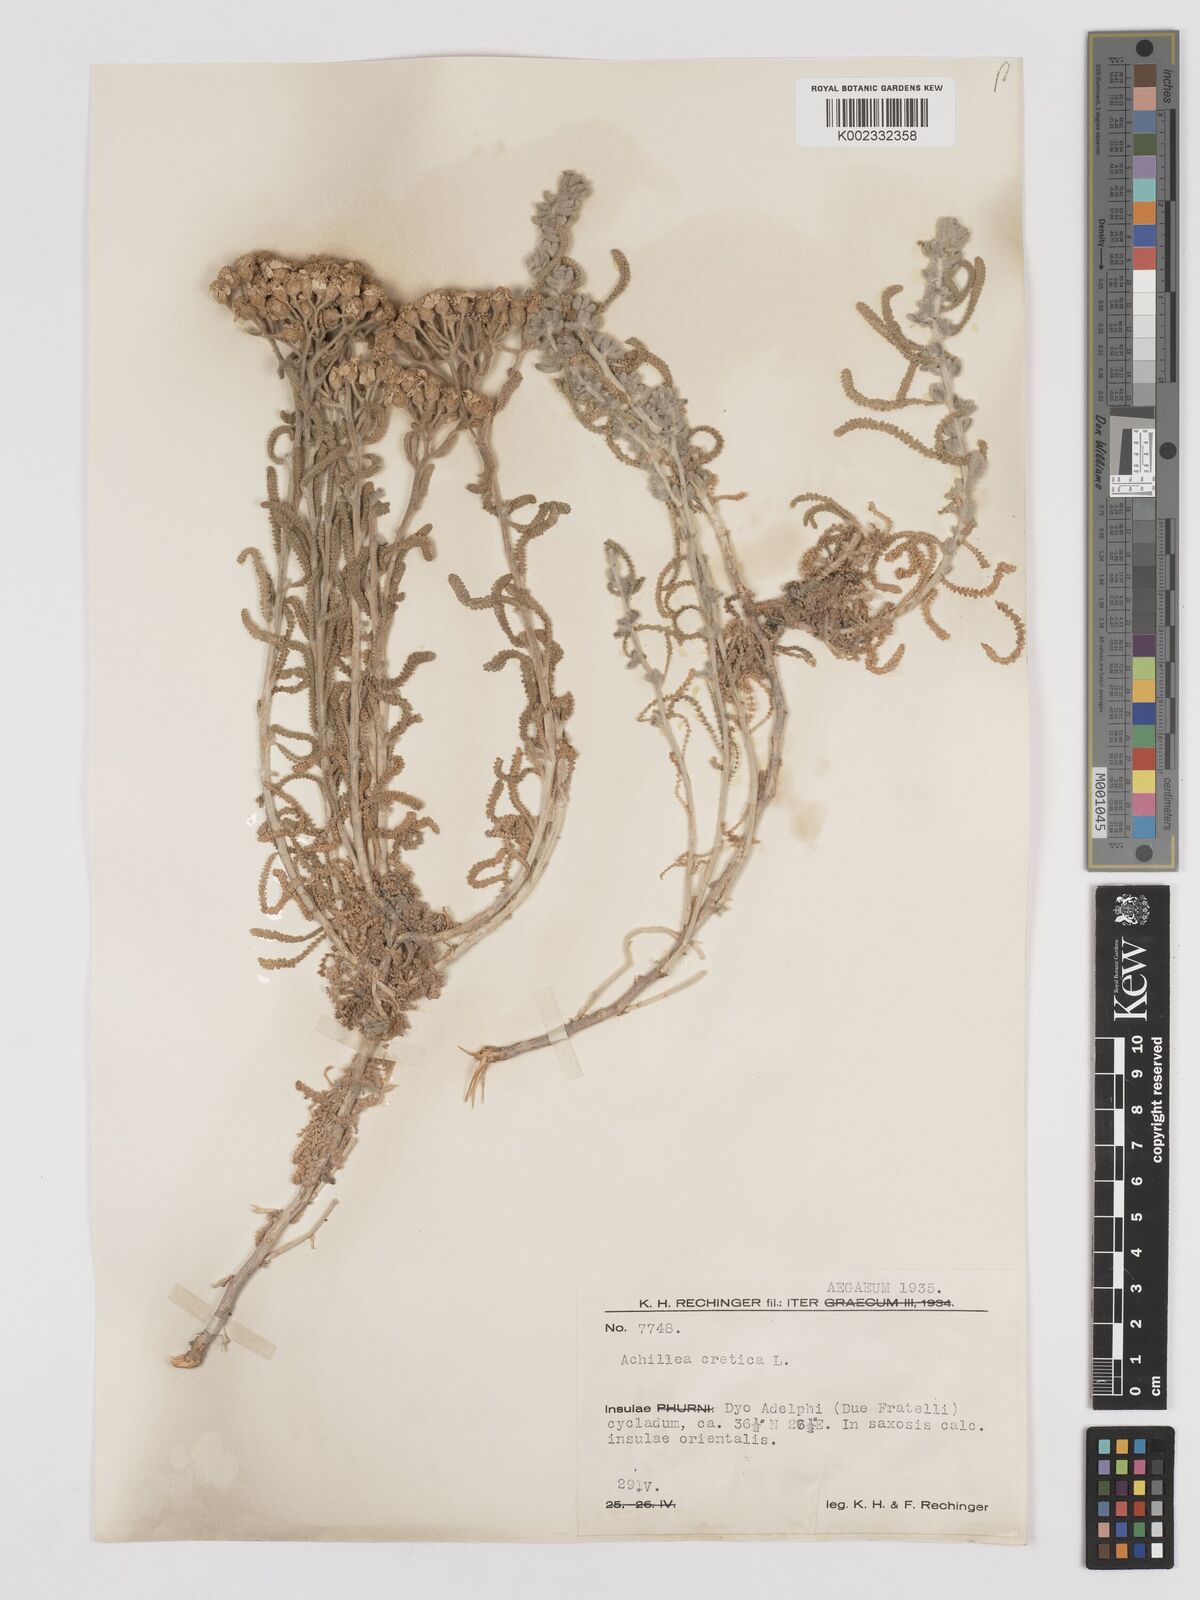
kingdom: Plantae
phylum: Tracheophyta
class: Magnoliopsida
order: Asterales
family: Asteraceae
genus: Achillea
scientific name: Achillea cretica
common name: Chamomile-leaved lavender-cotton
